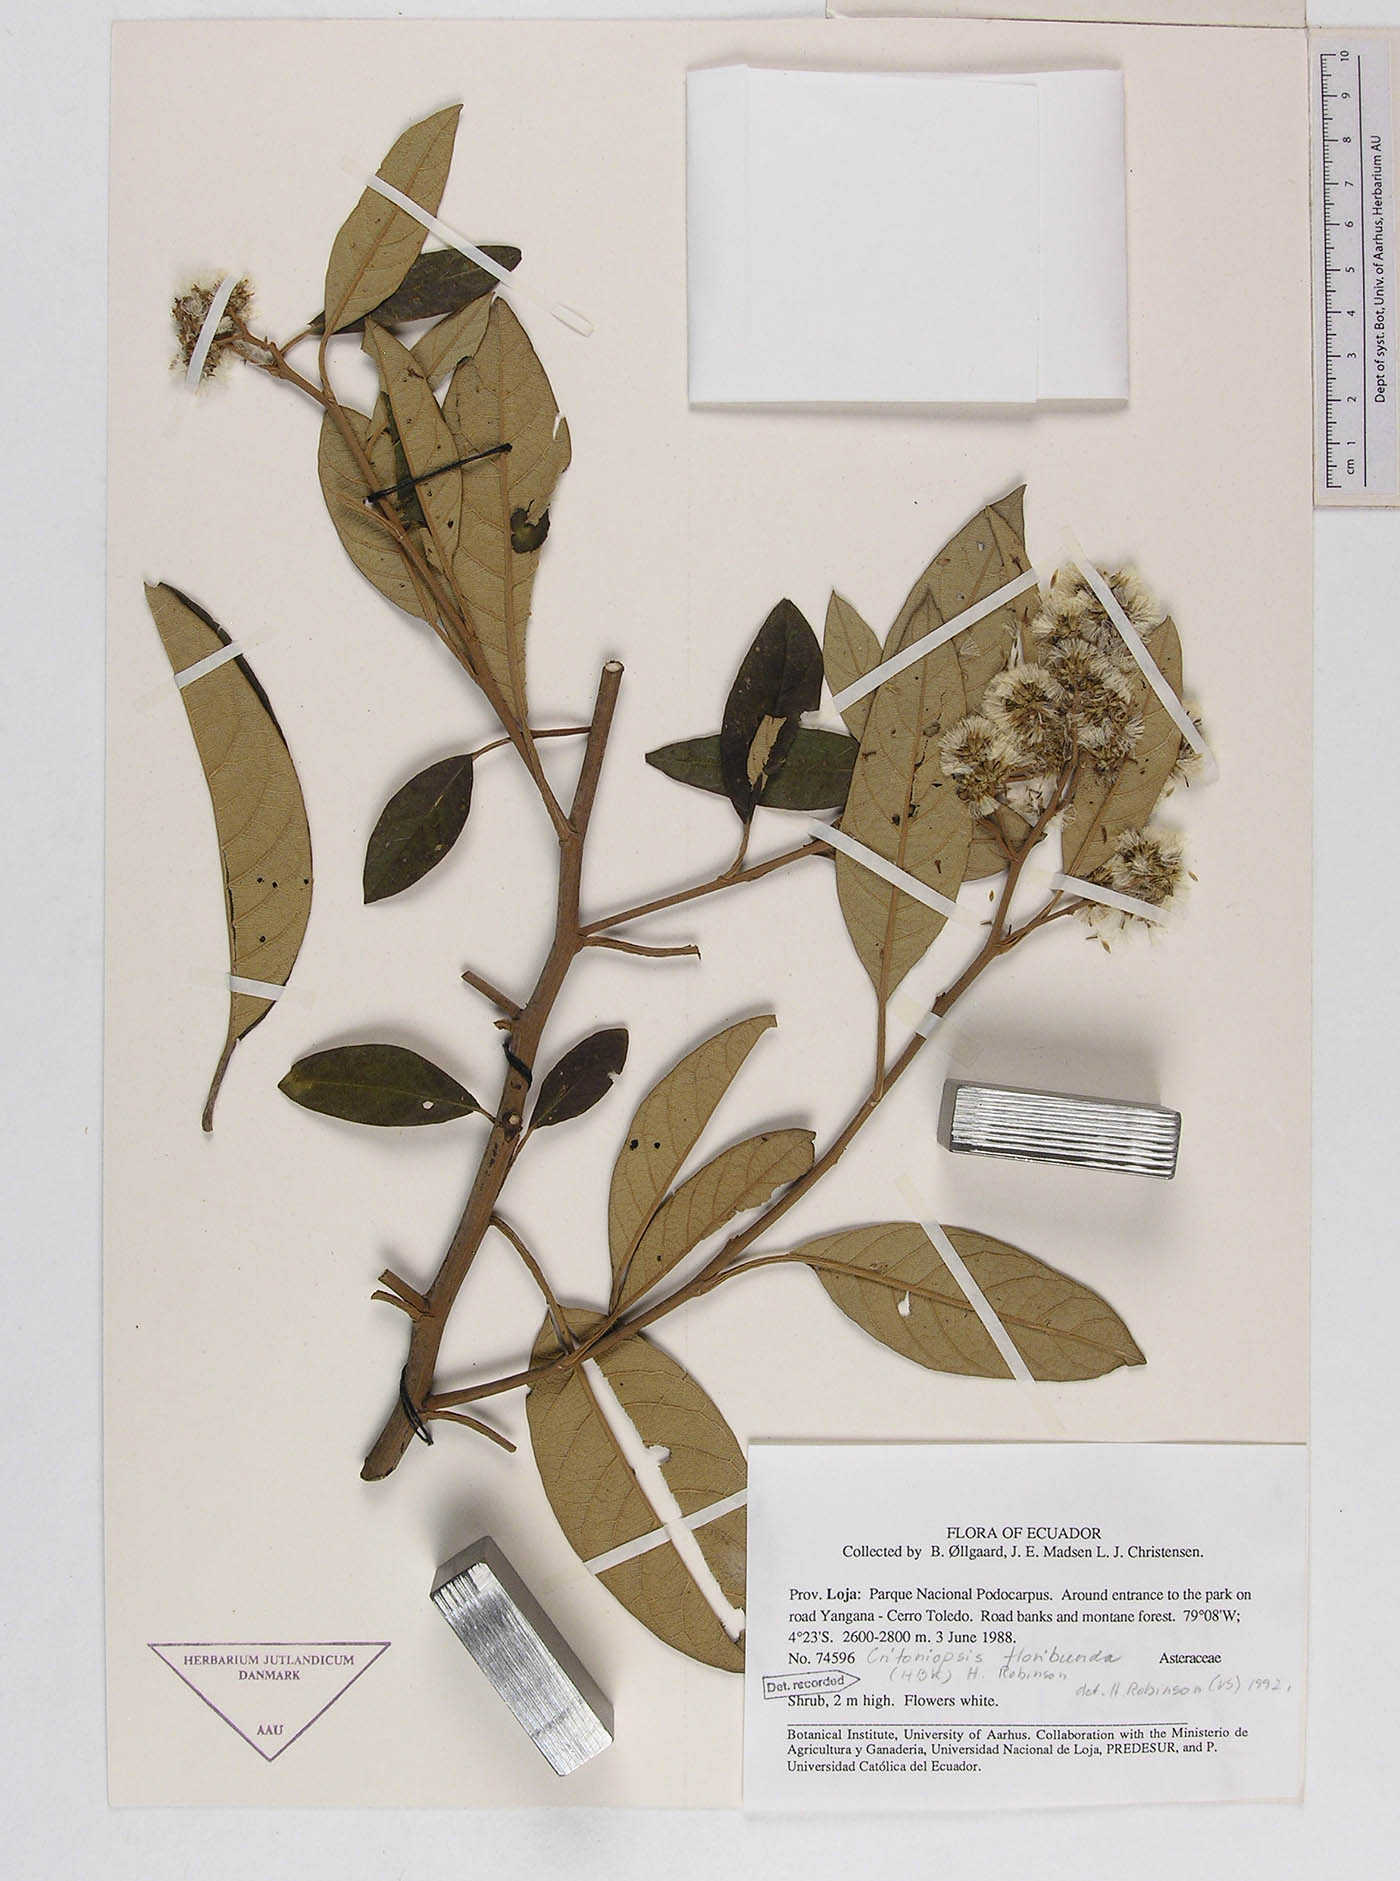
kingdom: Plantae
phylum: Tracheophyta
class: Magnoliopsida
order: Asterales
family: Asteraceae
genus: Critoniopsis
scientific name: Critoniopsis floribunda
